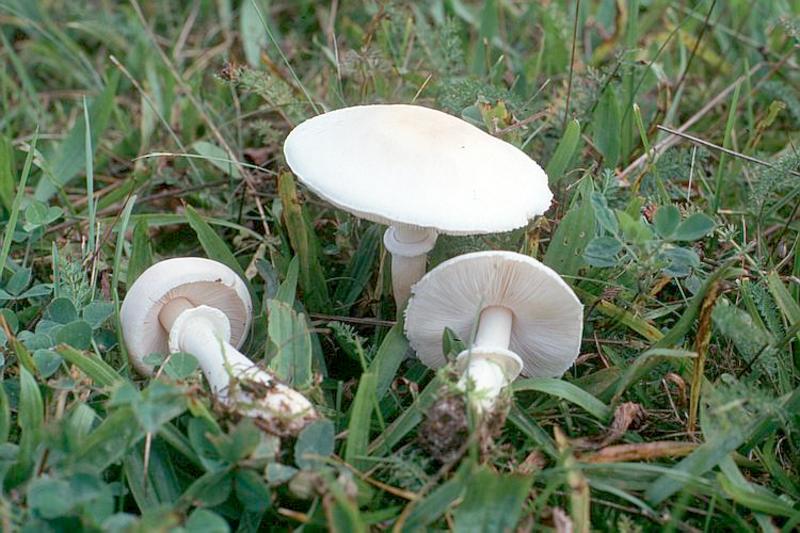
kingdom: Fungi
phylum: Basidiomycota
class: Agaricomycetes
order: Agaricales
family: Agaricaceae
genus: Leucoagaricus
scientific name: Leucoagaricus leucothites
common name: White dapperling
